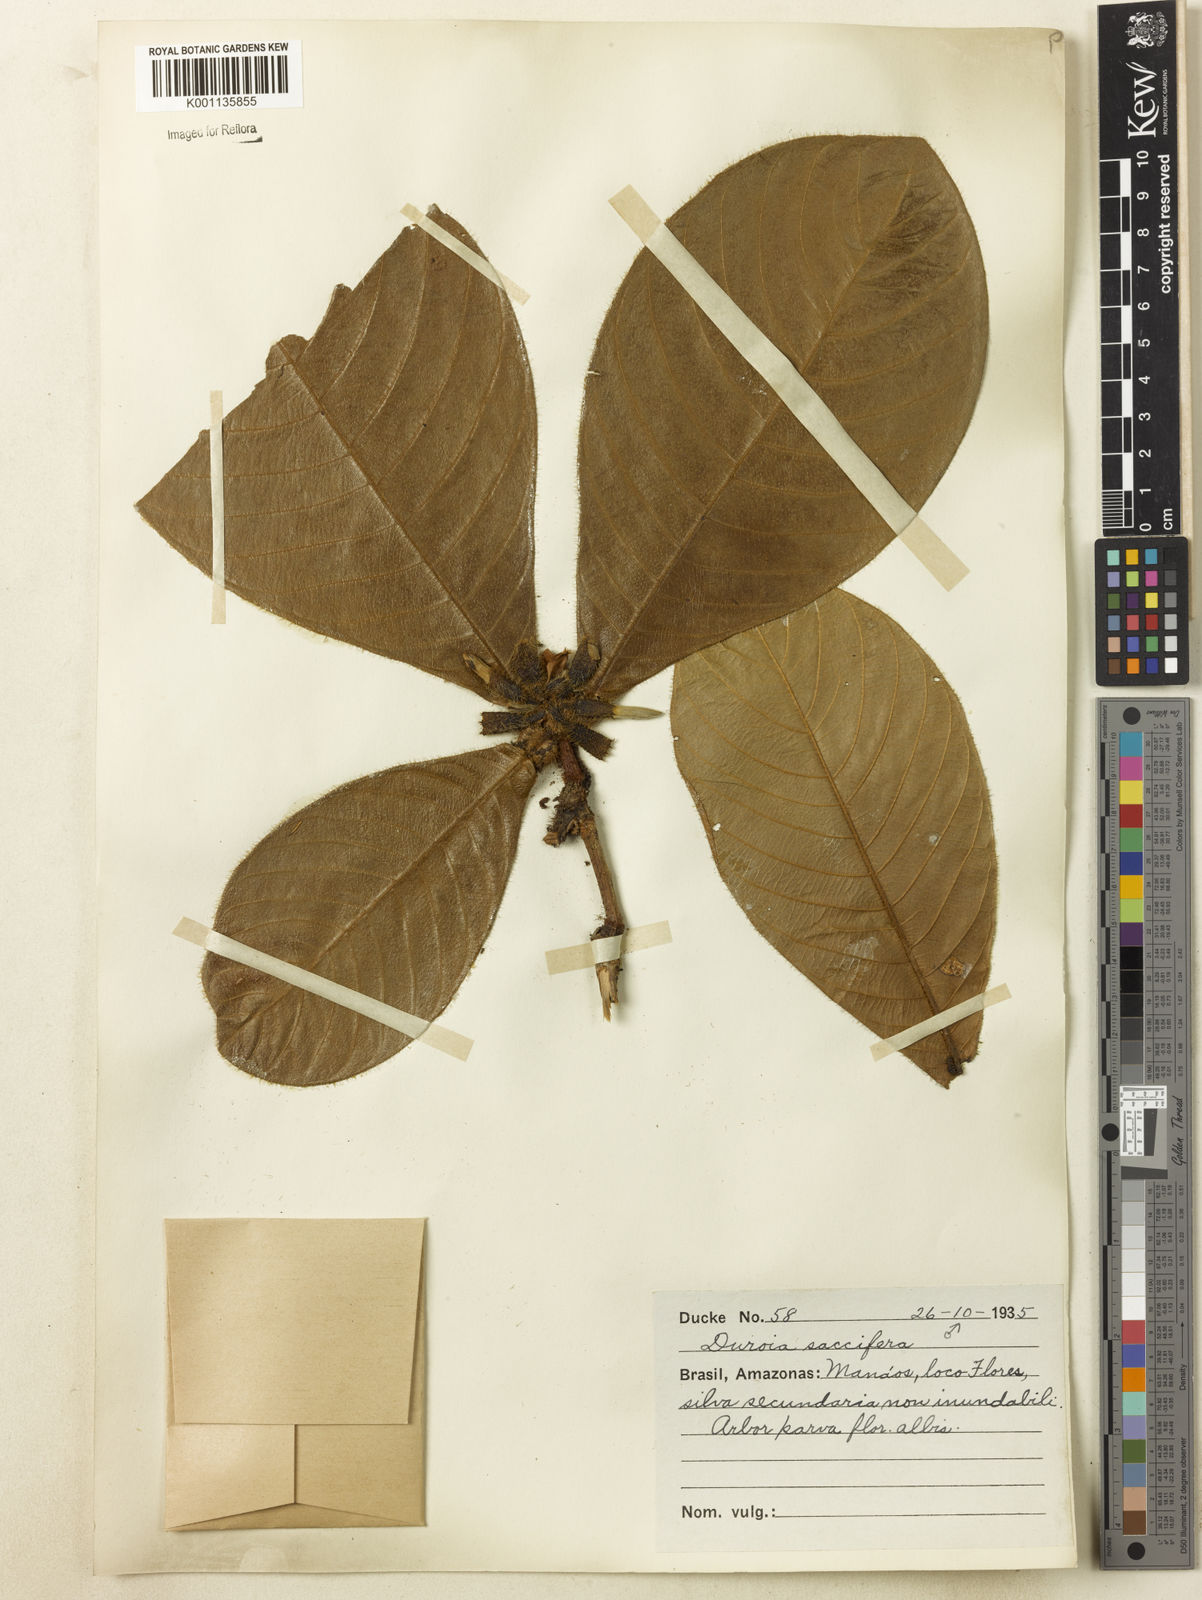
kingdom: Plantae
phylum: Tracheophyta
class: Magnoliopsida
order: Gentianales
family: Rubiaceae
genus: Duroia
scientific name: Duroia saccifera
